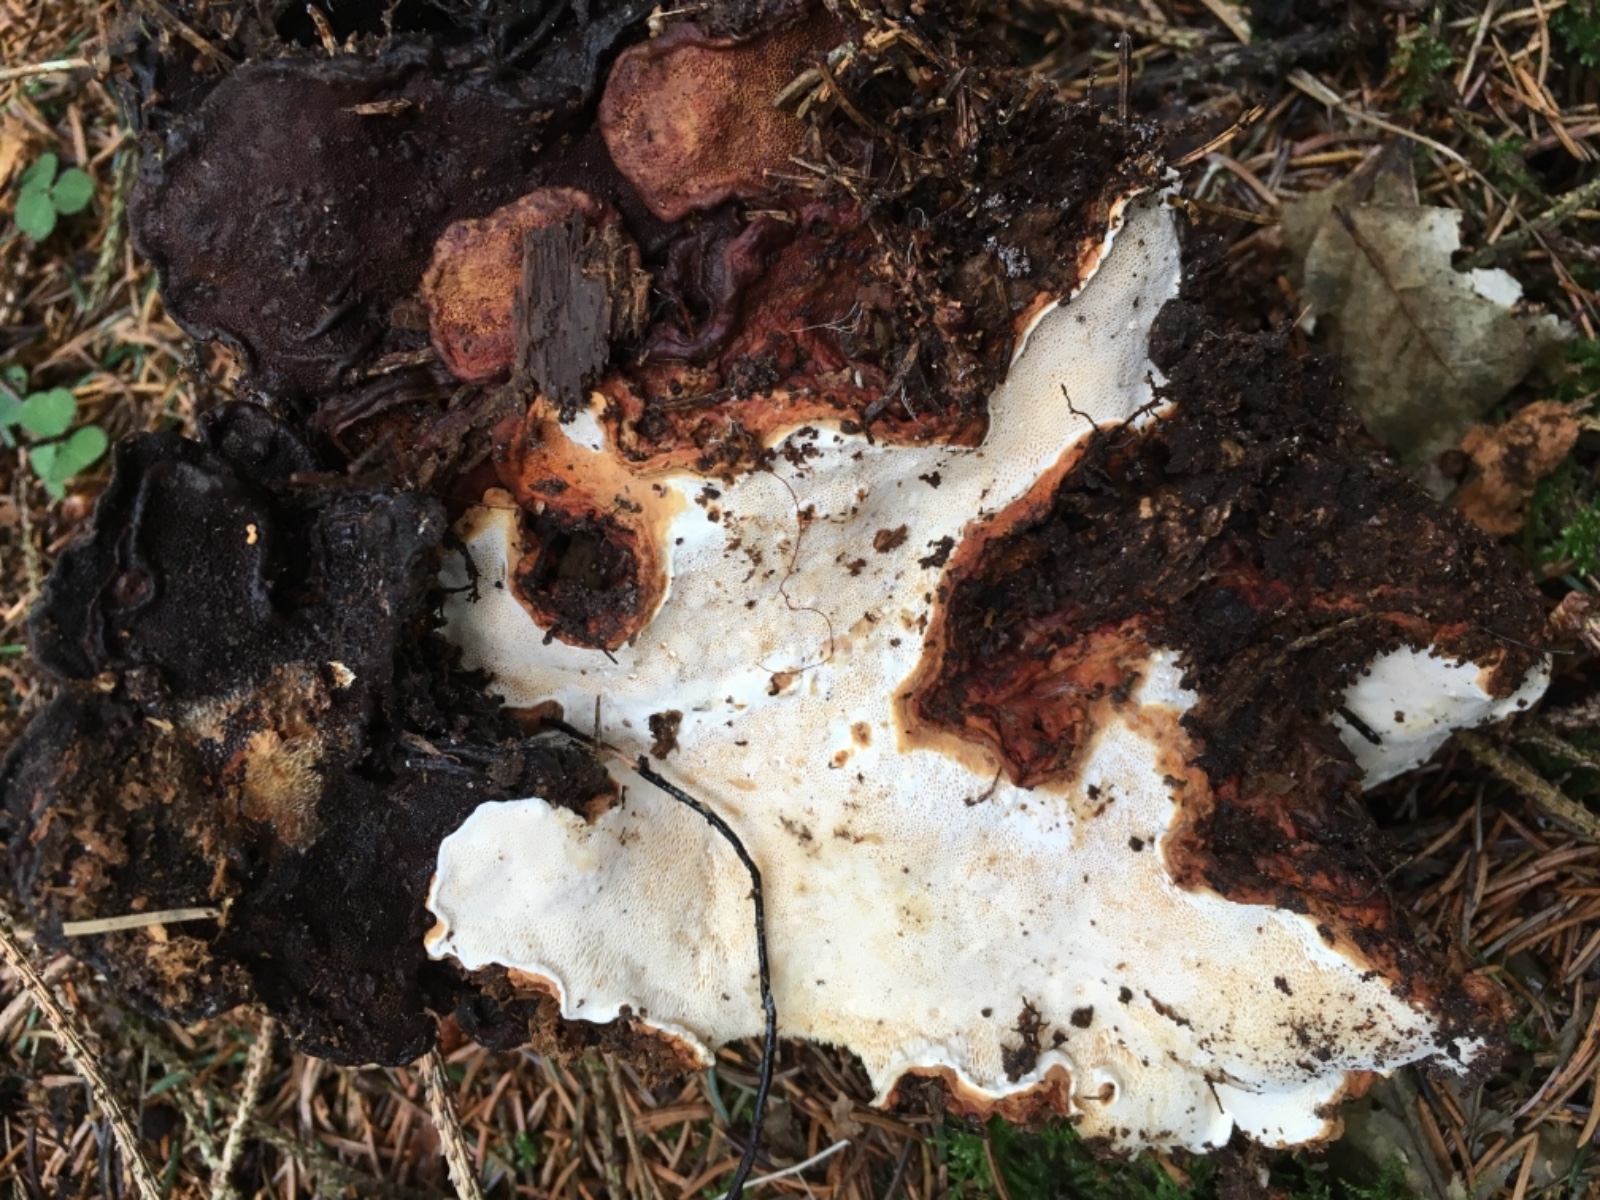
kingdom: Fungi
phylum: Basidiomycota
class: Agaricomycetes
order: Russulales
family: Bondarzewiaceae
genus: Heterobasidion
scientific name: Heterobasidion annosum
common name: almindelig rodfordærver
